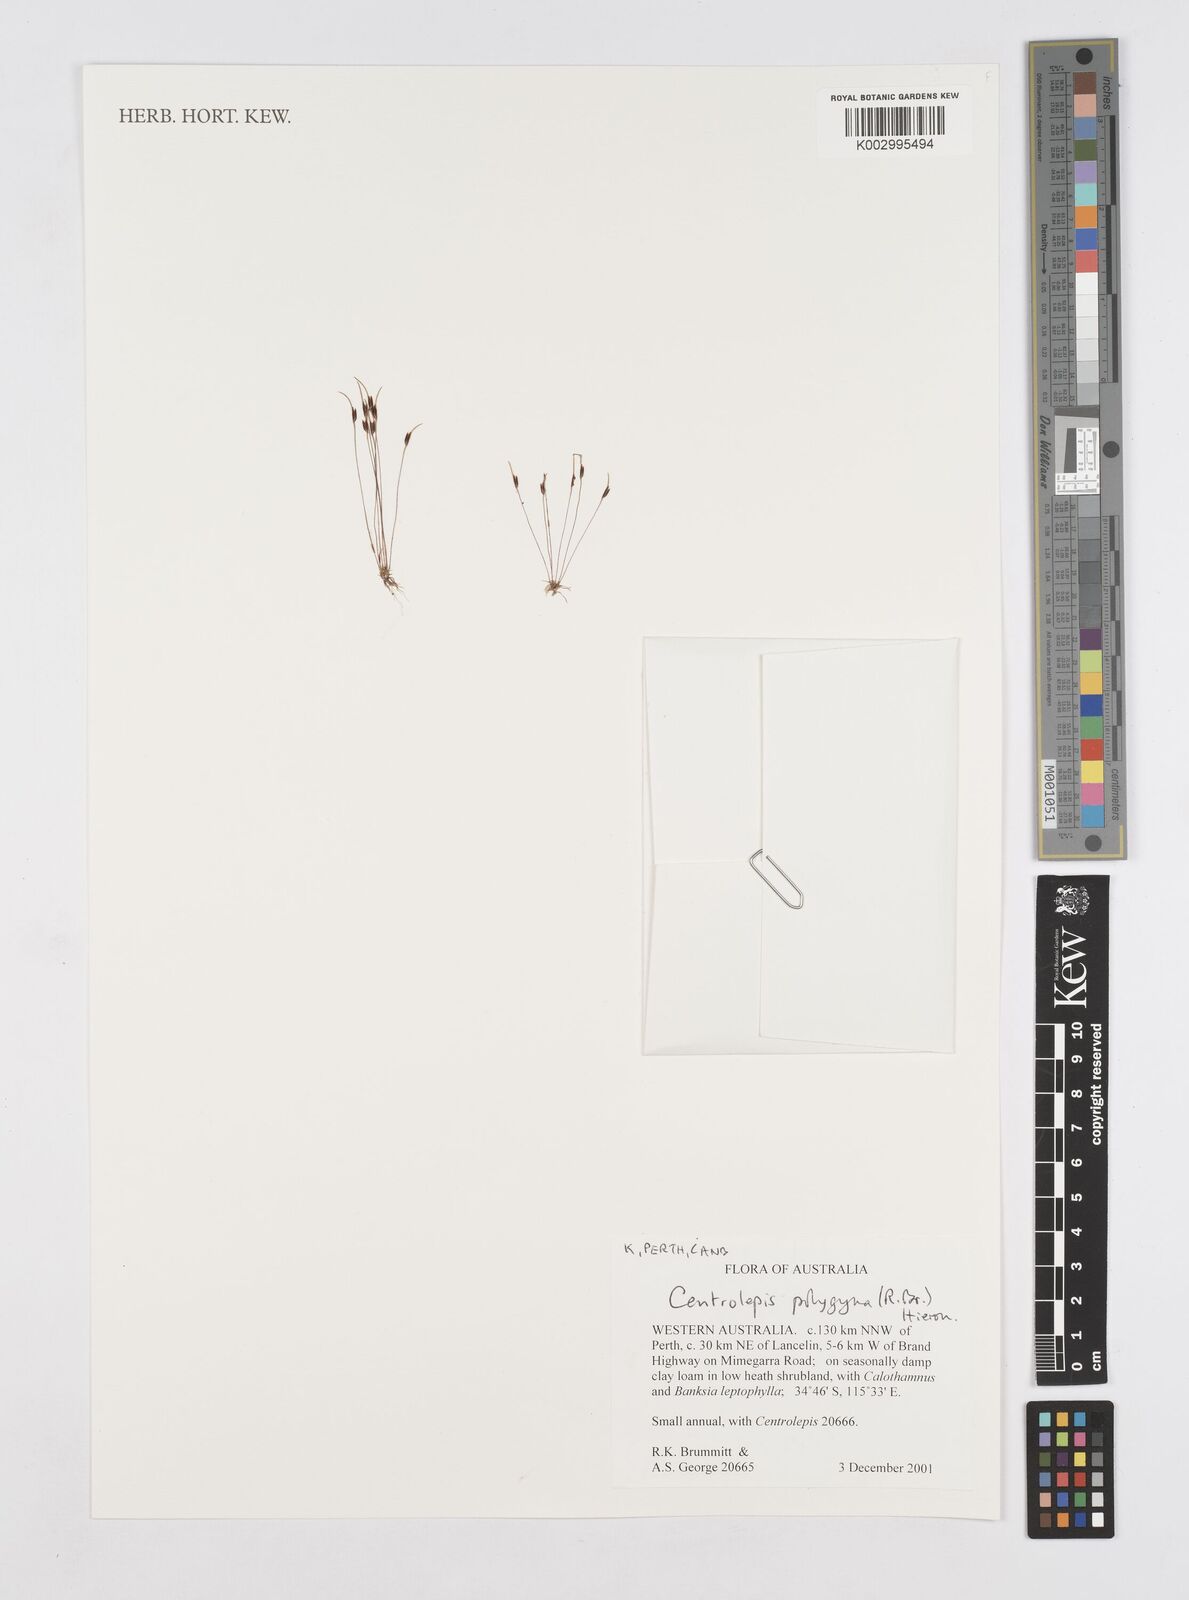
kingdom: Plantae
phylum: Tracheophyta
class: Liliopsida
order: Poales
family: Restionaceae
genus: Centrolepis
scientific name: Centrolepis polygyna
